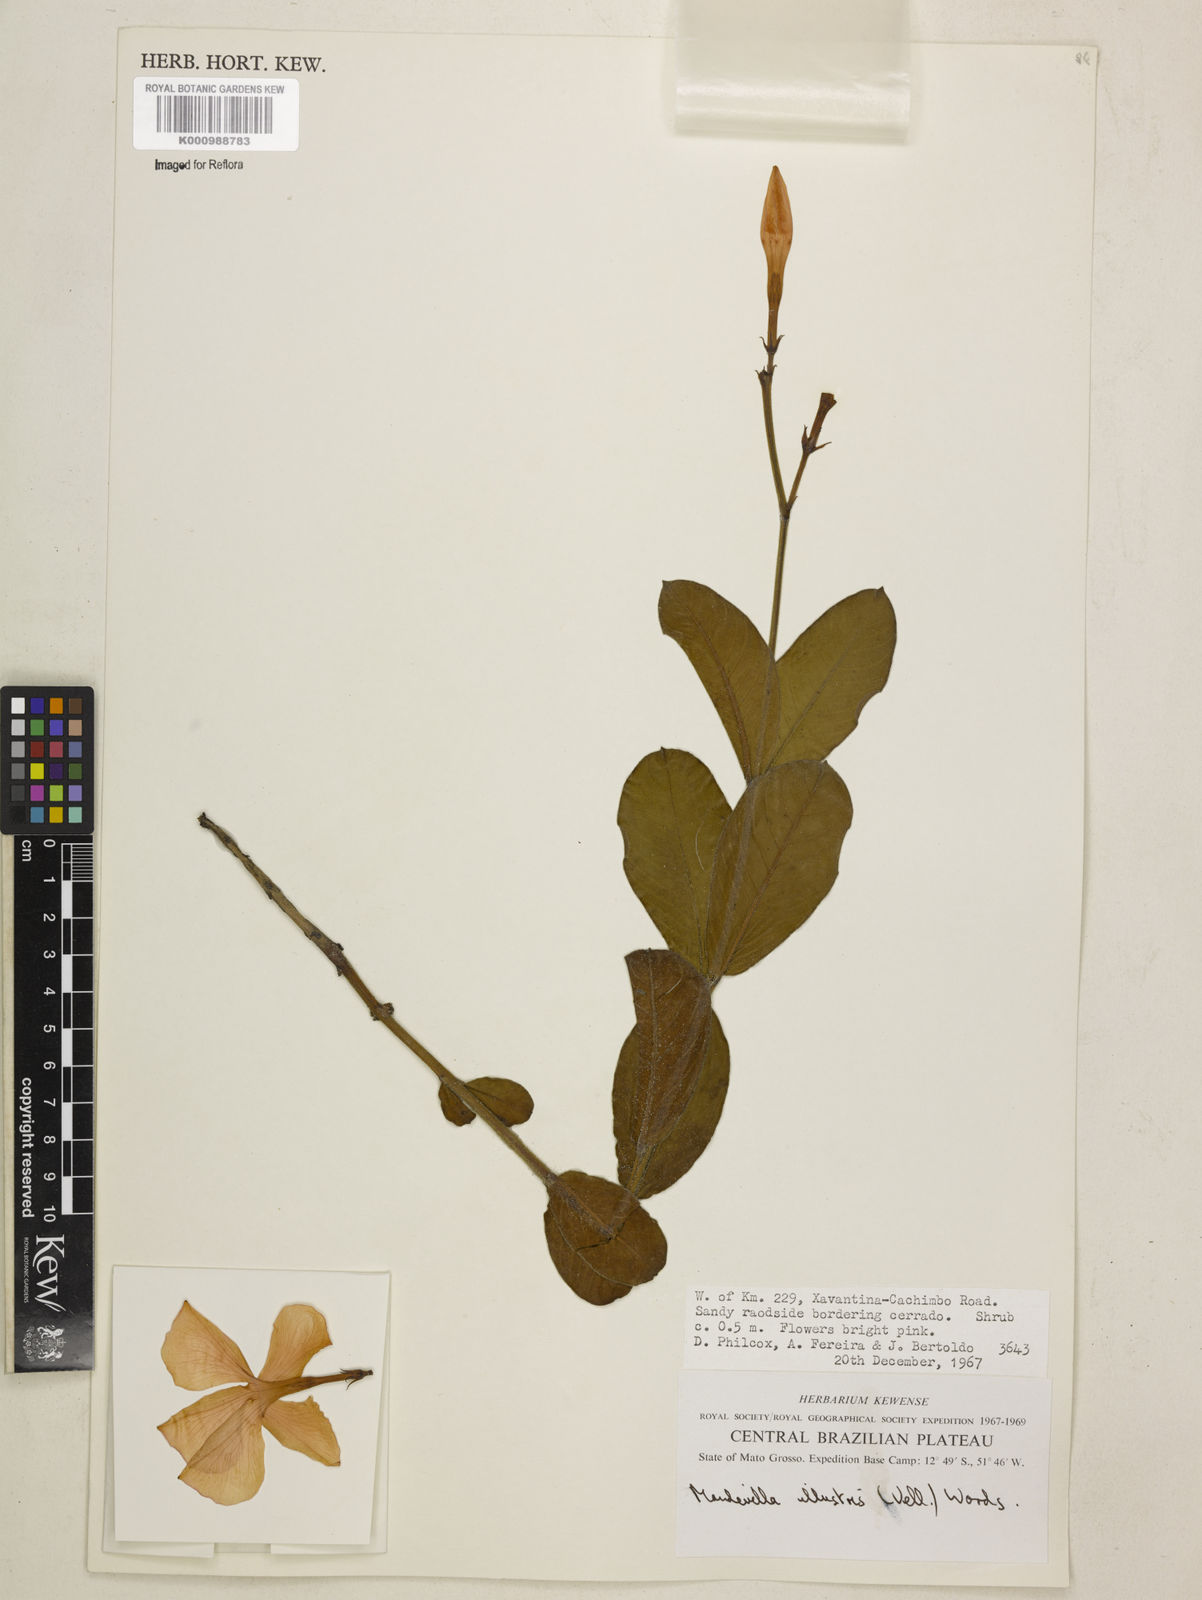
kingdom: Plantae
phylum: Tracheophyta
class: Magnoliopsida
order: Gentianales
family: Apocynaceae
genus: Mandevilla
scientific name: Mandevilla illustris
